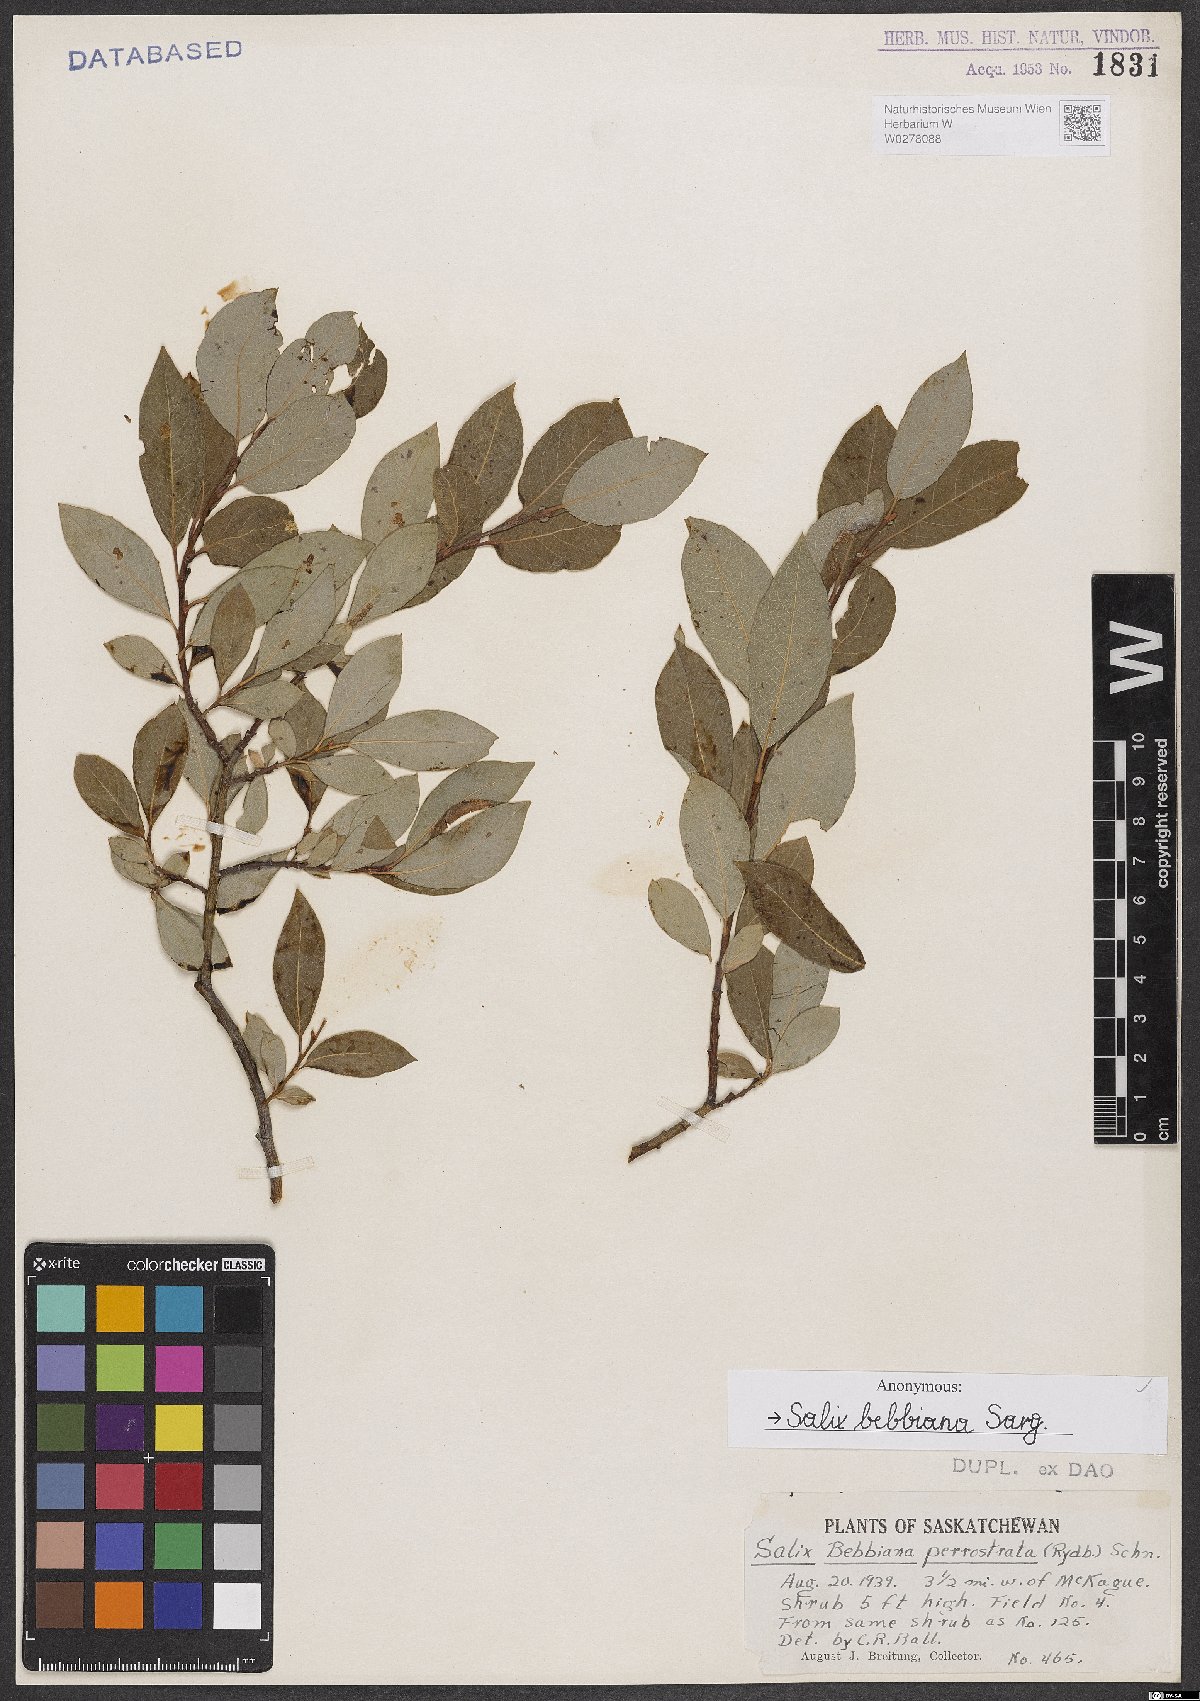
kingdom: Plantae
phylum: Tracheophyta
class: Magnoliopsida
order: Malpighiales
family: Salicaceae
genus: Salix
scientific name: Salix bebbiana
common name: Bebb's willow
